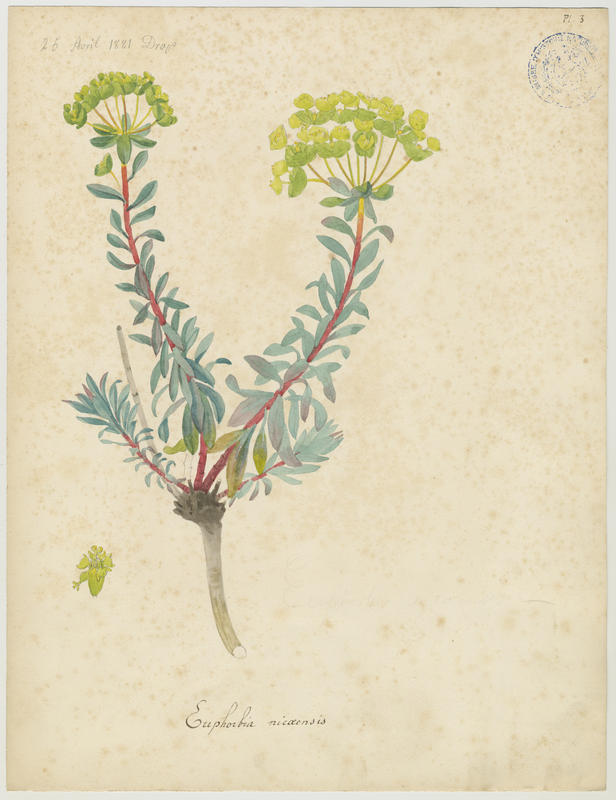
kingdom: Plantae
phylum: Tracheophyta
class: Magnoliopsida
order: Malpighiales
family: Euphorbiaceae
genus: Euphorbia
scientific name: Euphorbia nicaeensis
